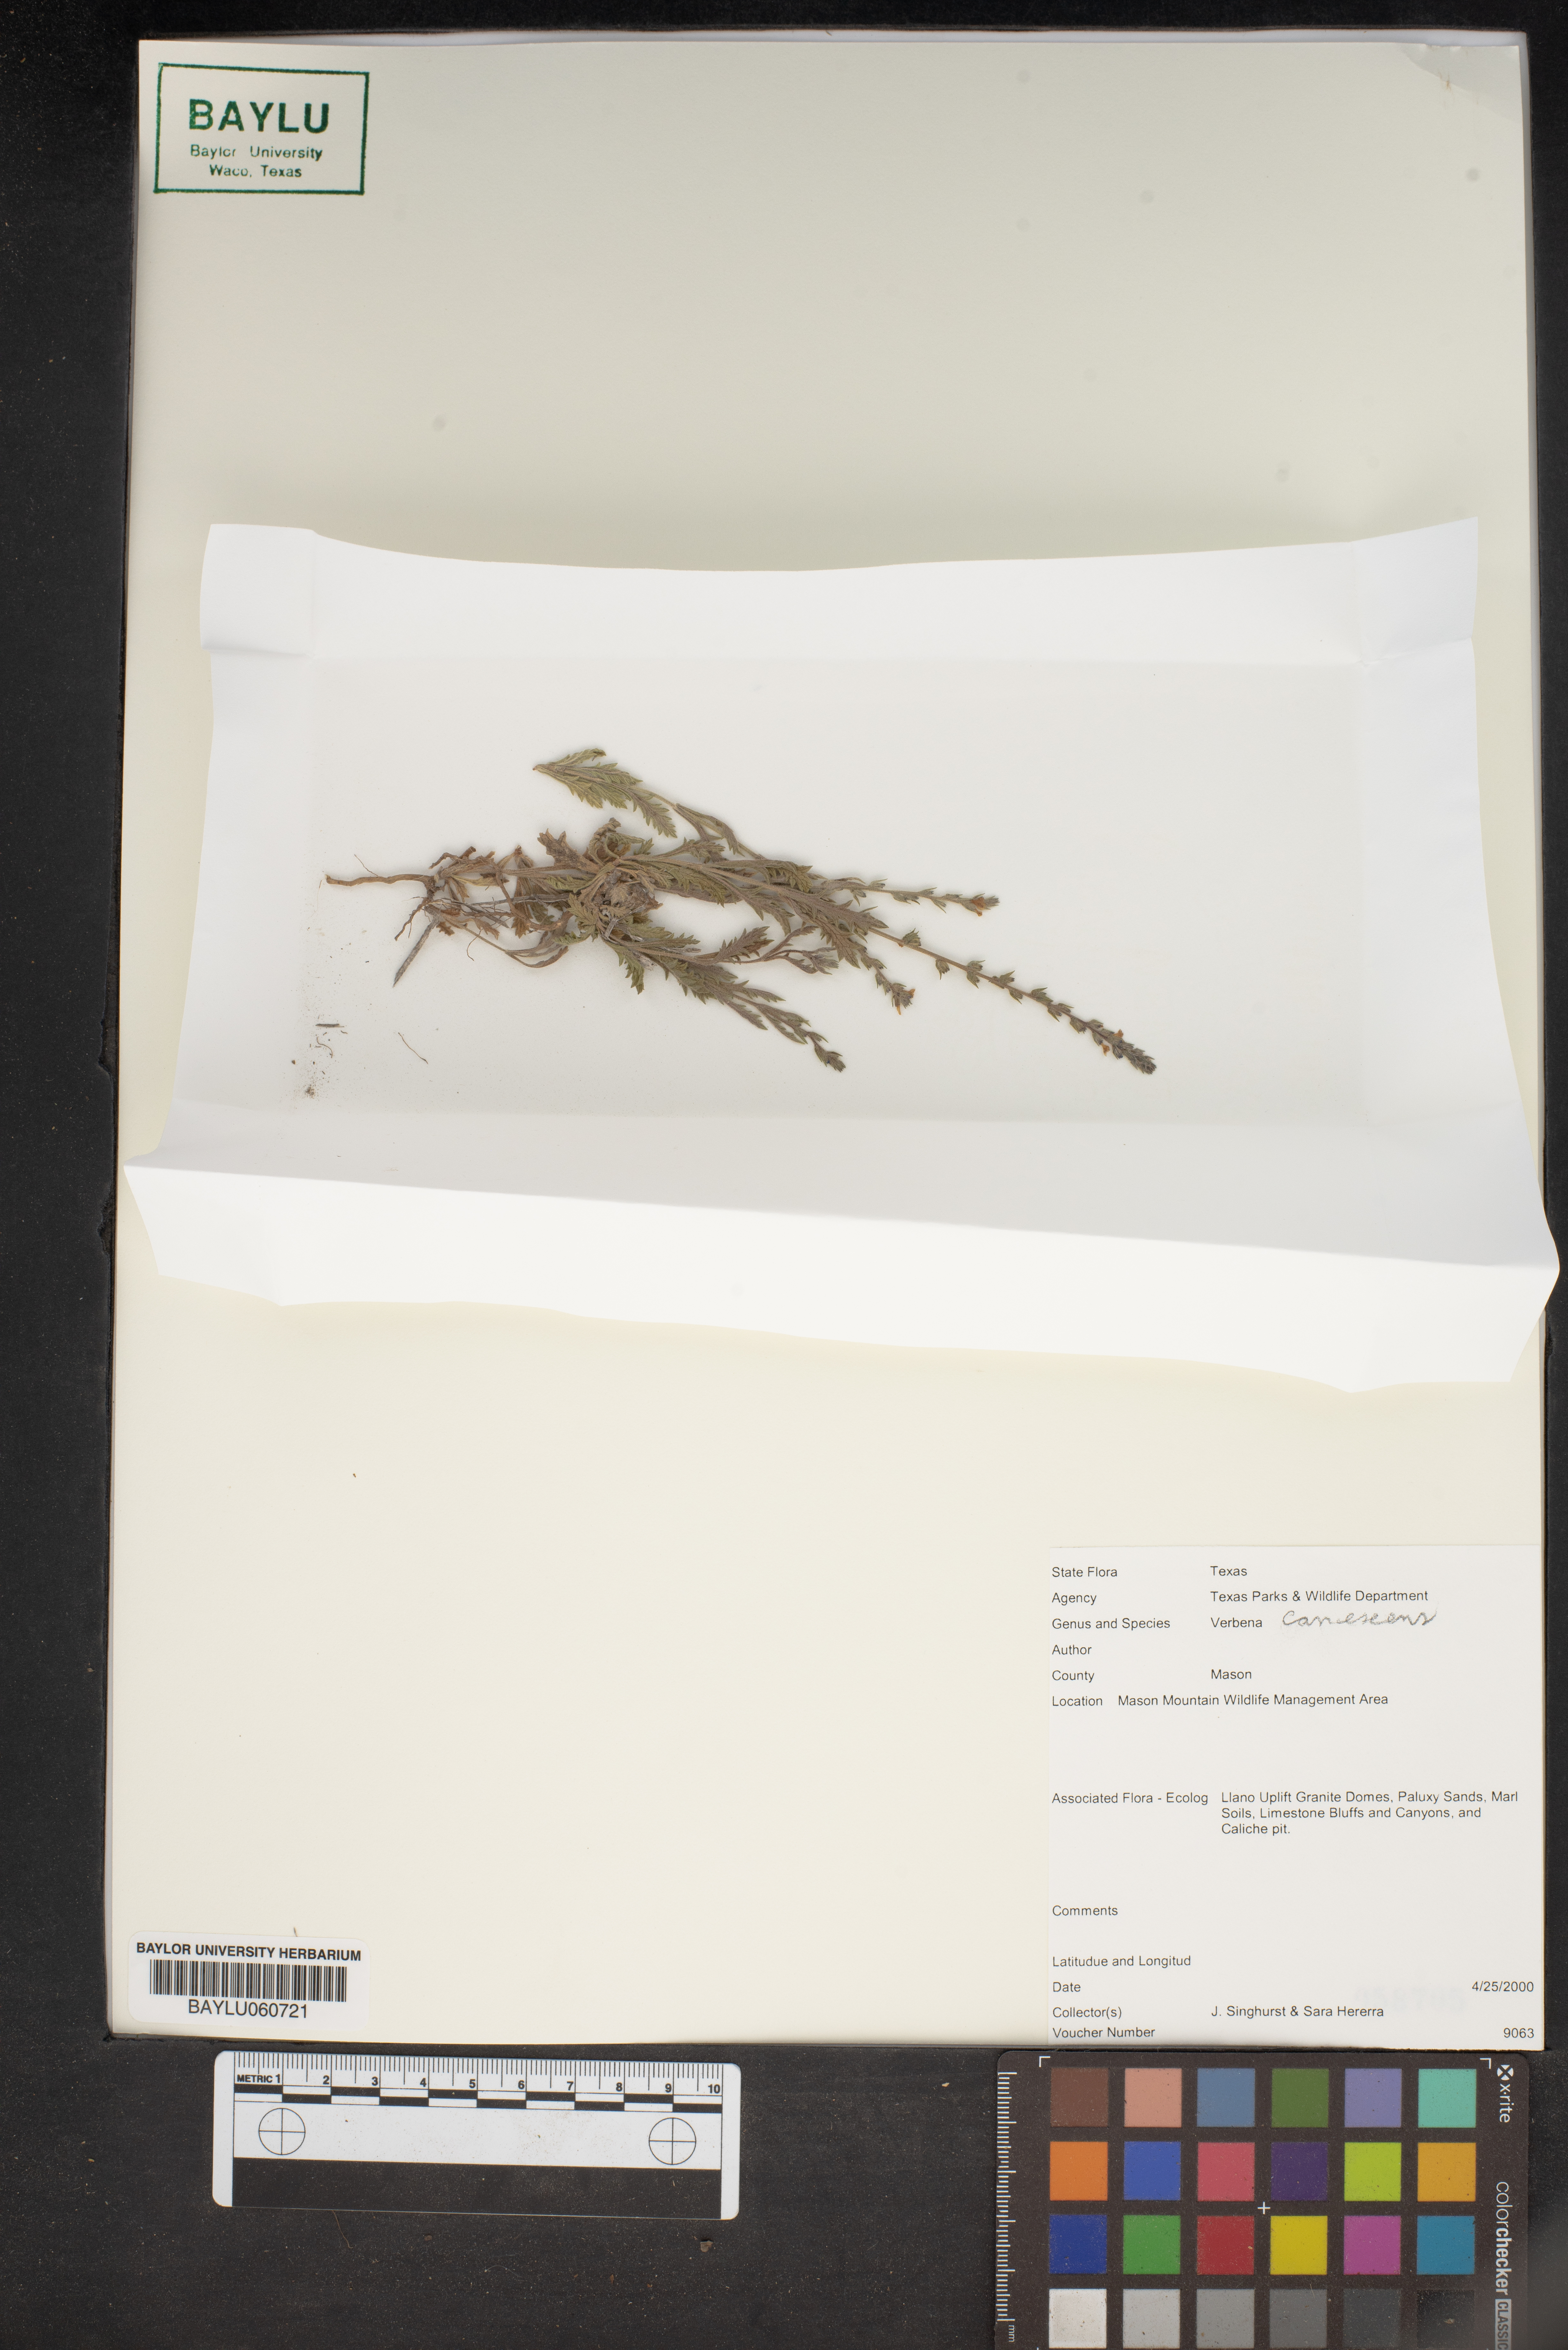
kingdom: Plantae
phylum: Tracheophyta
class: Magnoliopsida
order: Lamiales
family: Verbenaceae
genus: Verbena
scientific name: Verbena canescens
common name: Gray vervain
